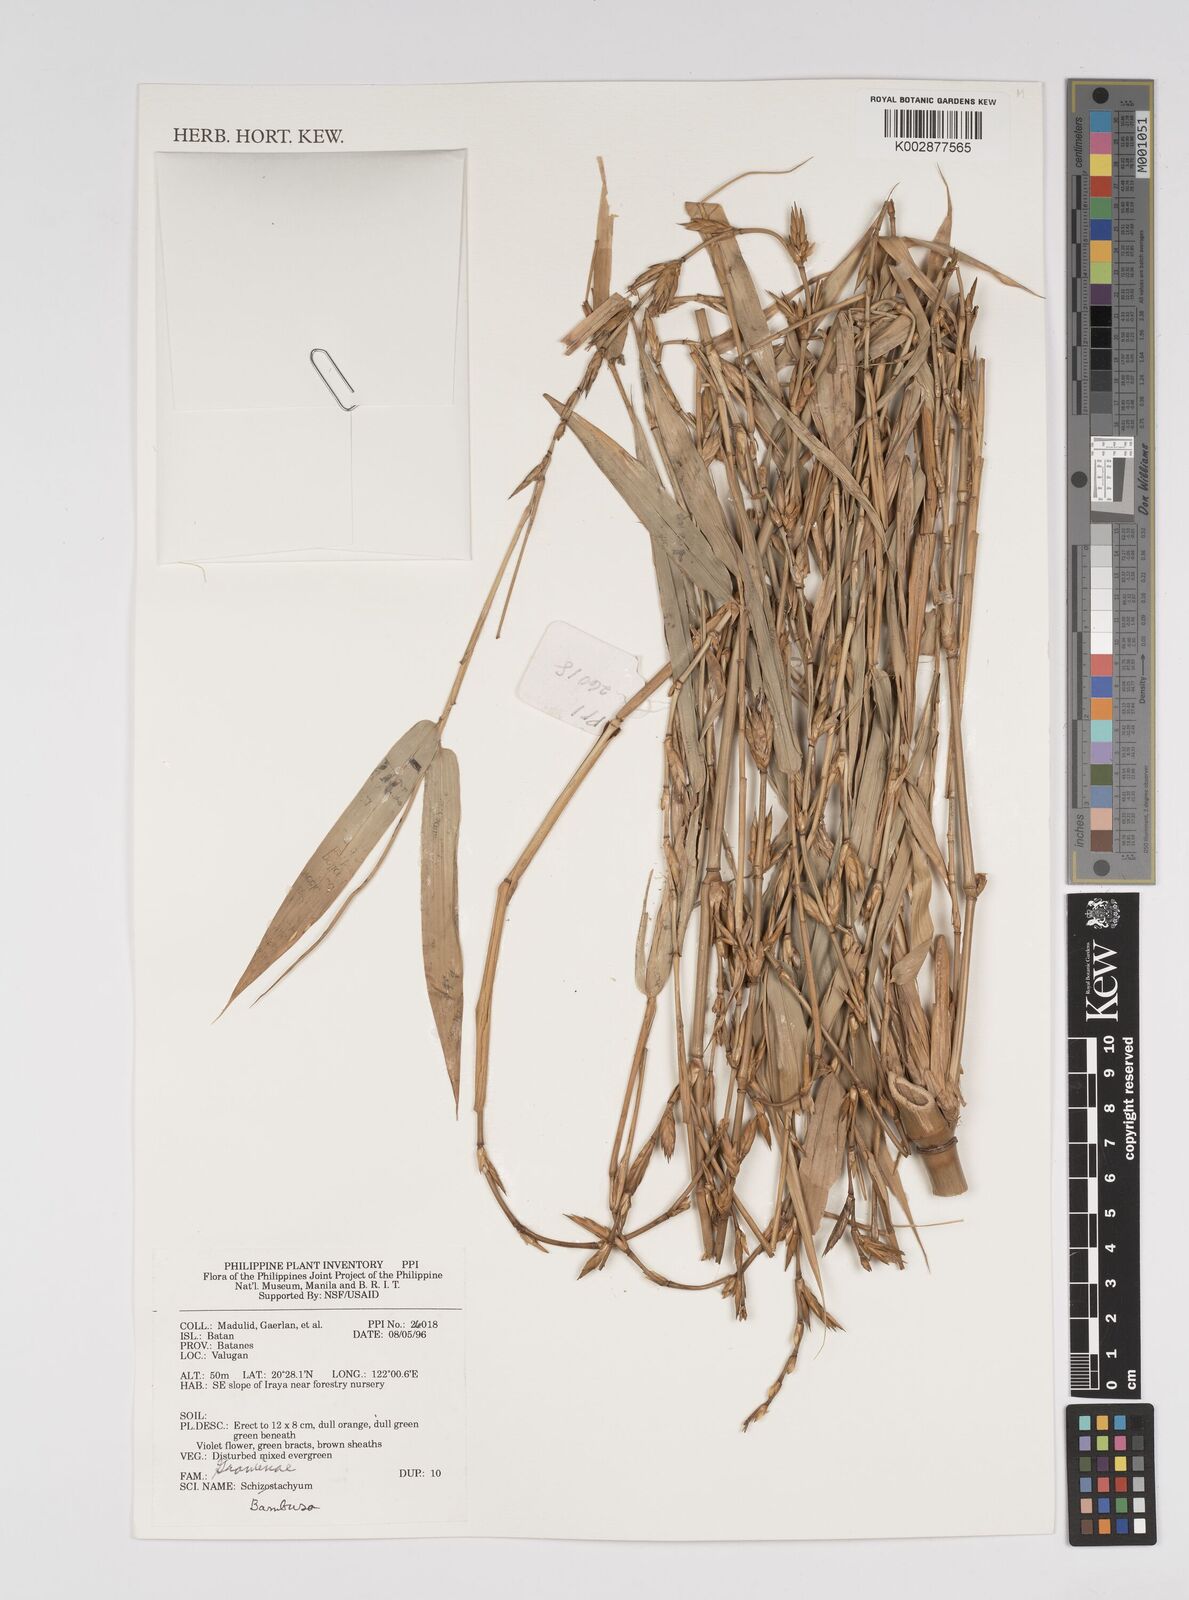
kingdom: Plantae
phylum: Tracheophyta
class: Liliopsida
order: Poales
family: Poaceae
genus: Bambusa
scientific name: Bambusa
